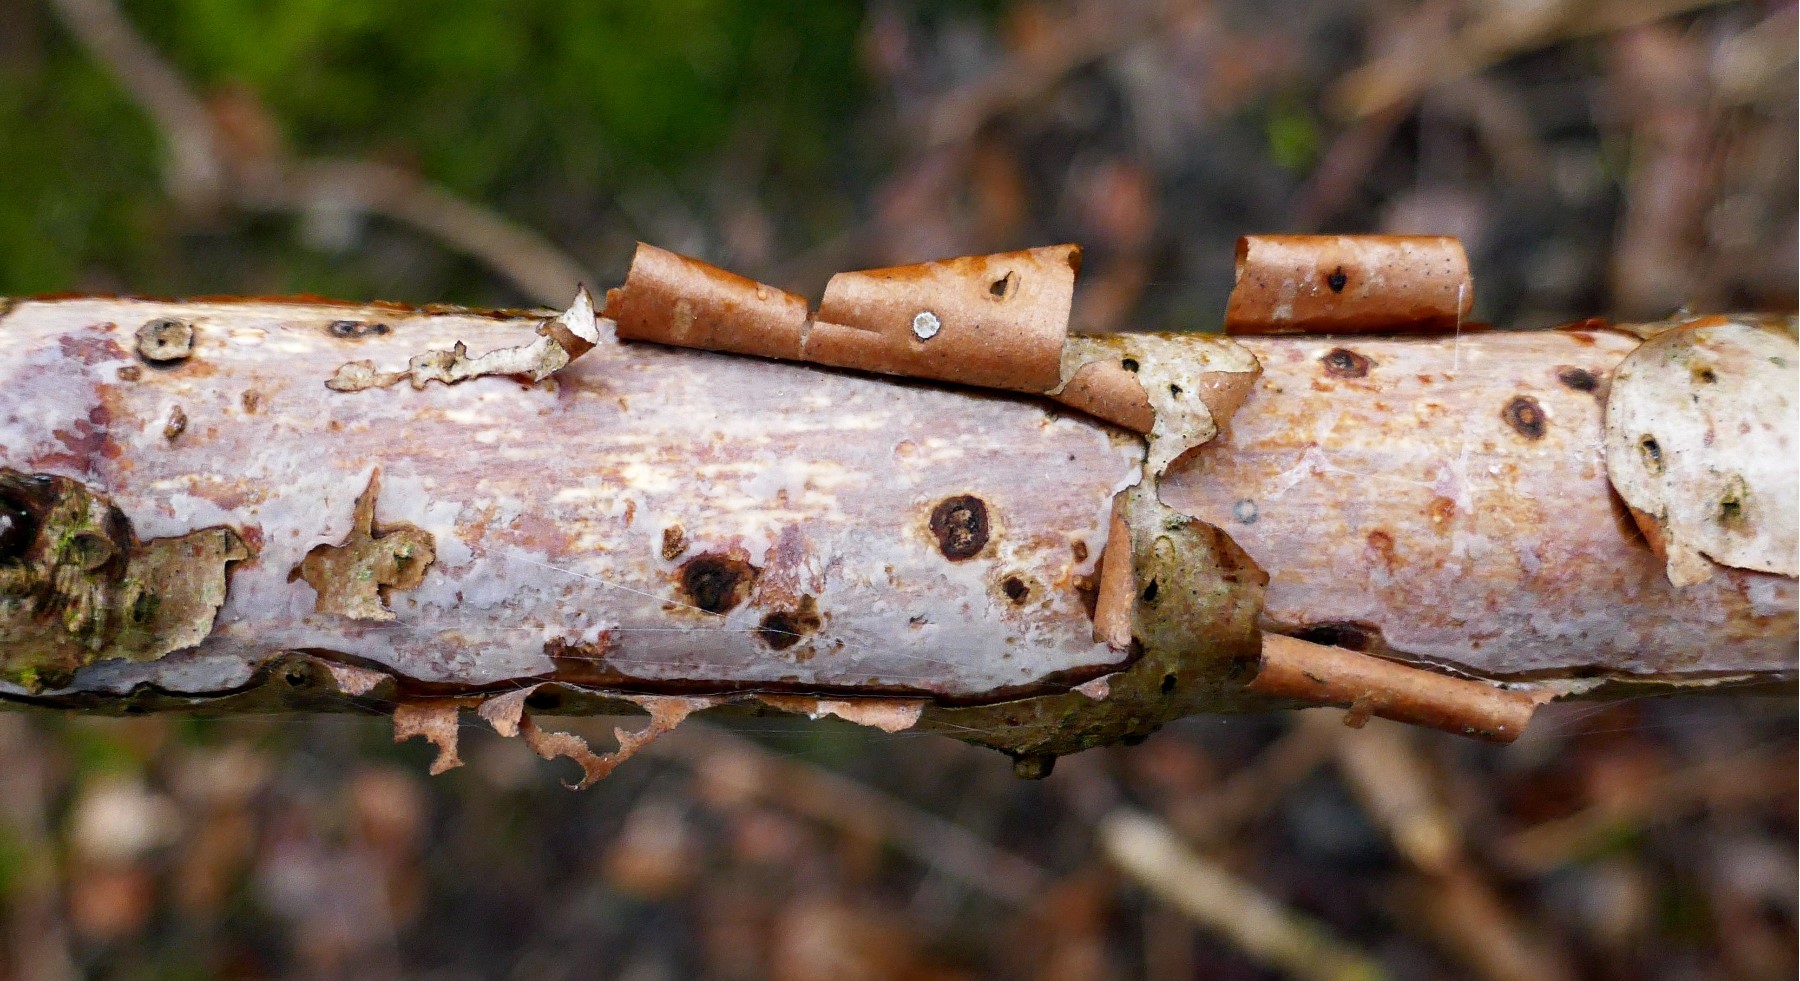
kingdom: Fungi
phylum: Basidiomycota
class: Agaricomycetes
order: Corticiales
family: Vuilleminiaceae
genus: Vuilleminia
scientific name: Vuilleminia coryli
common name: hassel-barksprænger
